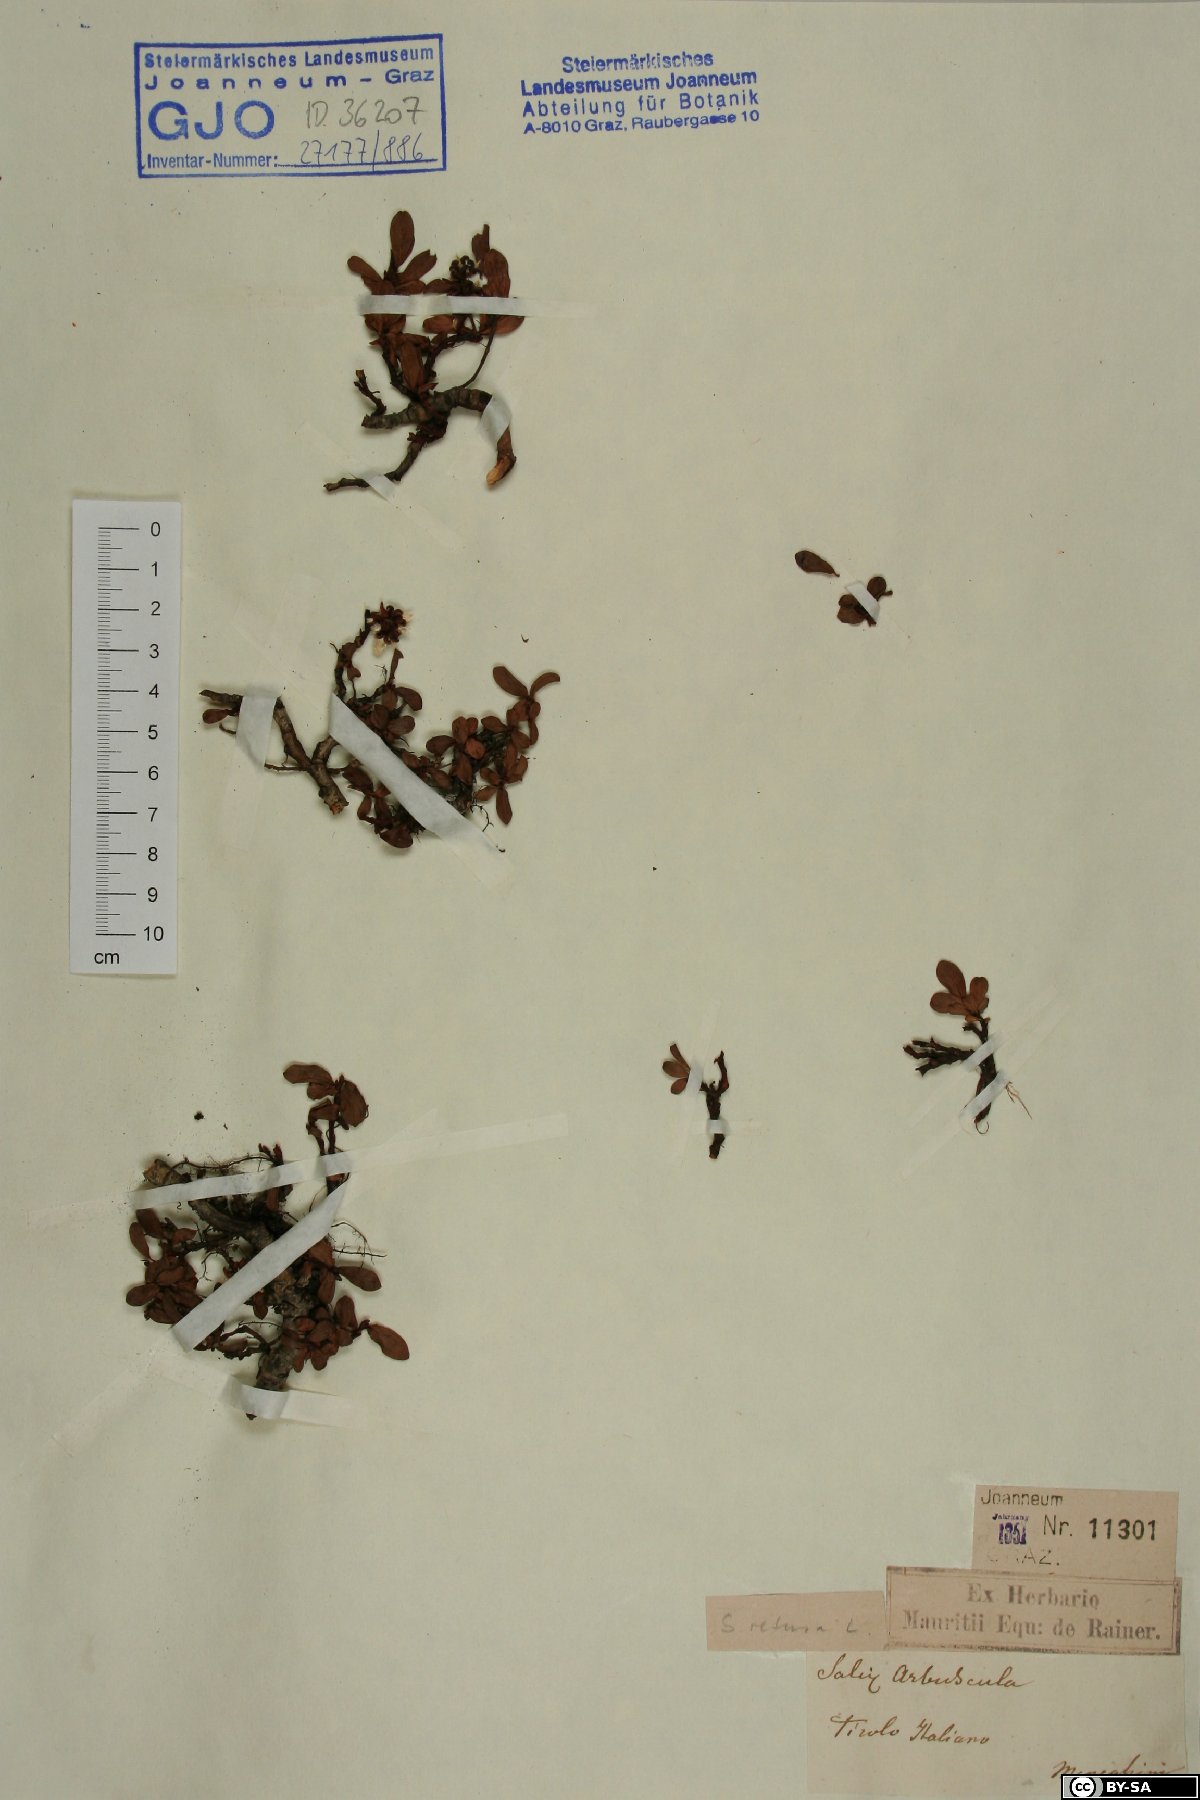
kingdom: Plantae
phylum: Tracheophyta
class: Magnoliopsida
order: Malpighiales
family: Salicaceae
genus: Salix
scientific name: Salix retusa
